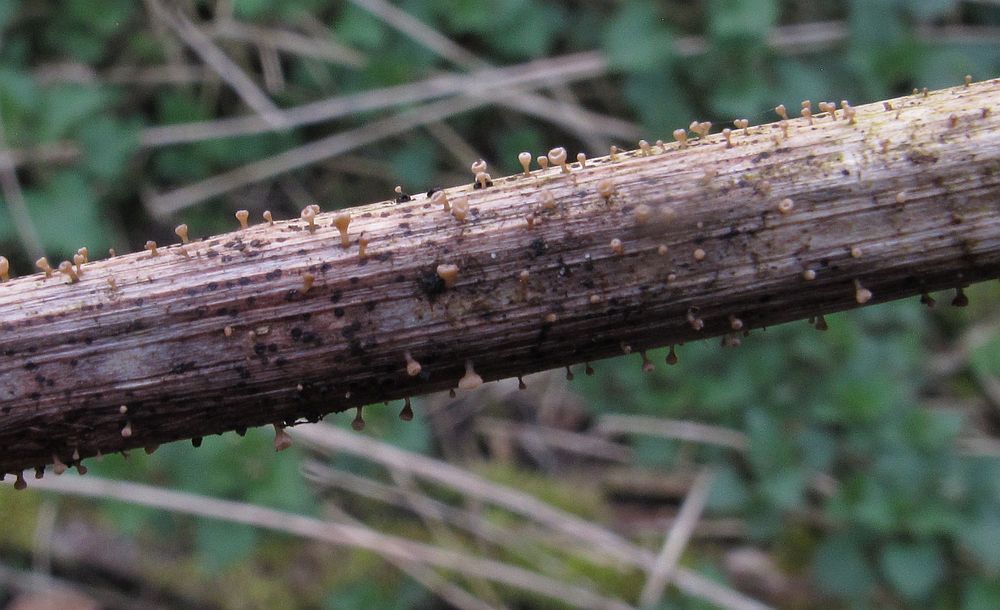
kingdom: Fungi
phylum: Ascomycota
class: Leotiomycetes
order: Helotiales
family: Helotiaceae
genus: Cyathicula
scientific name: Cyathicula cyathoidea
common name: pokal-stilkskive
